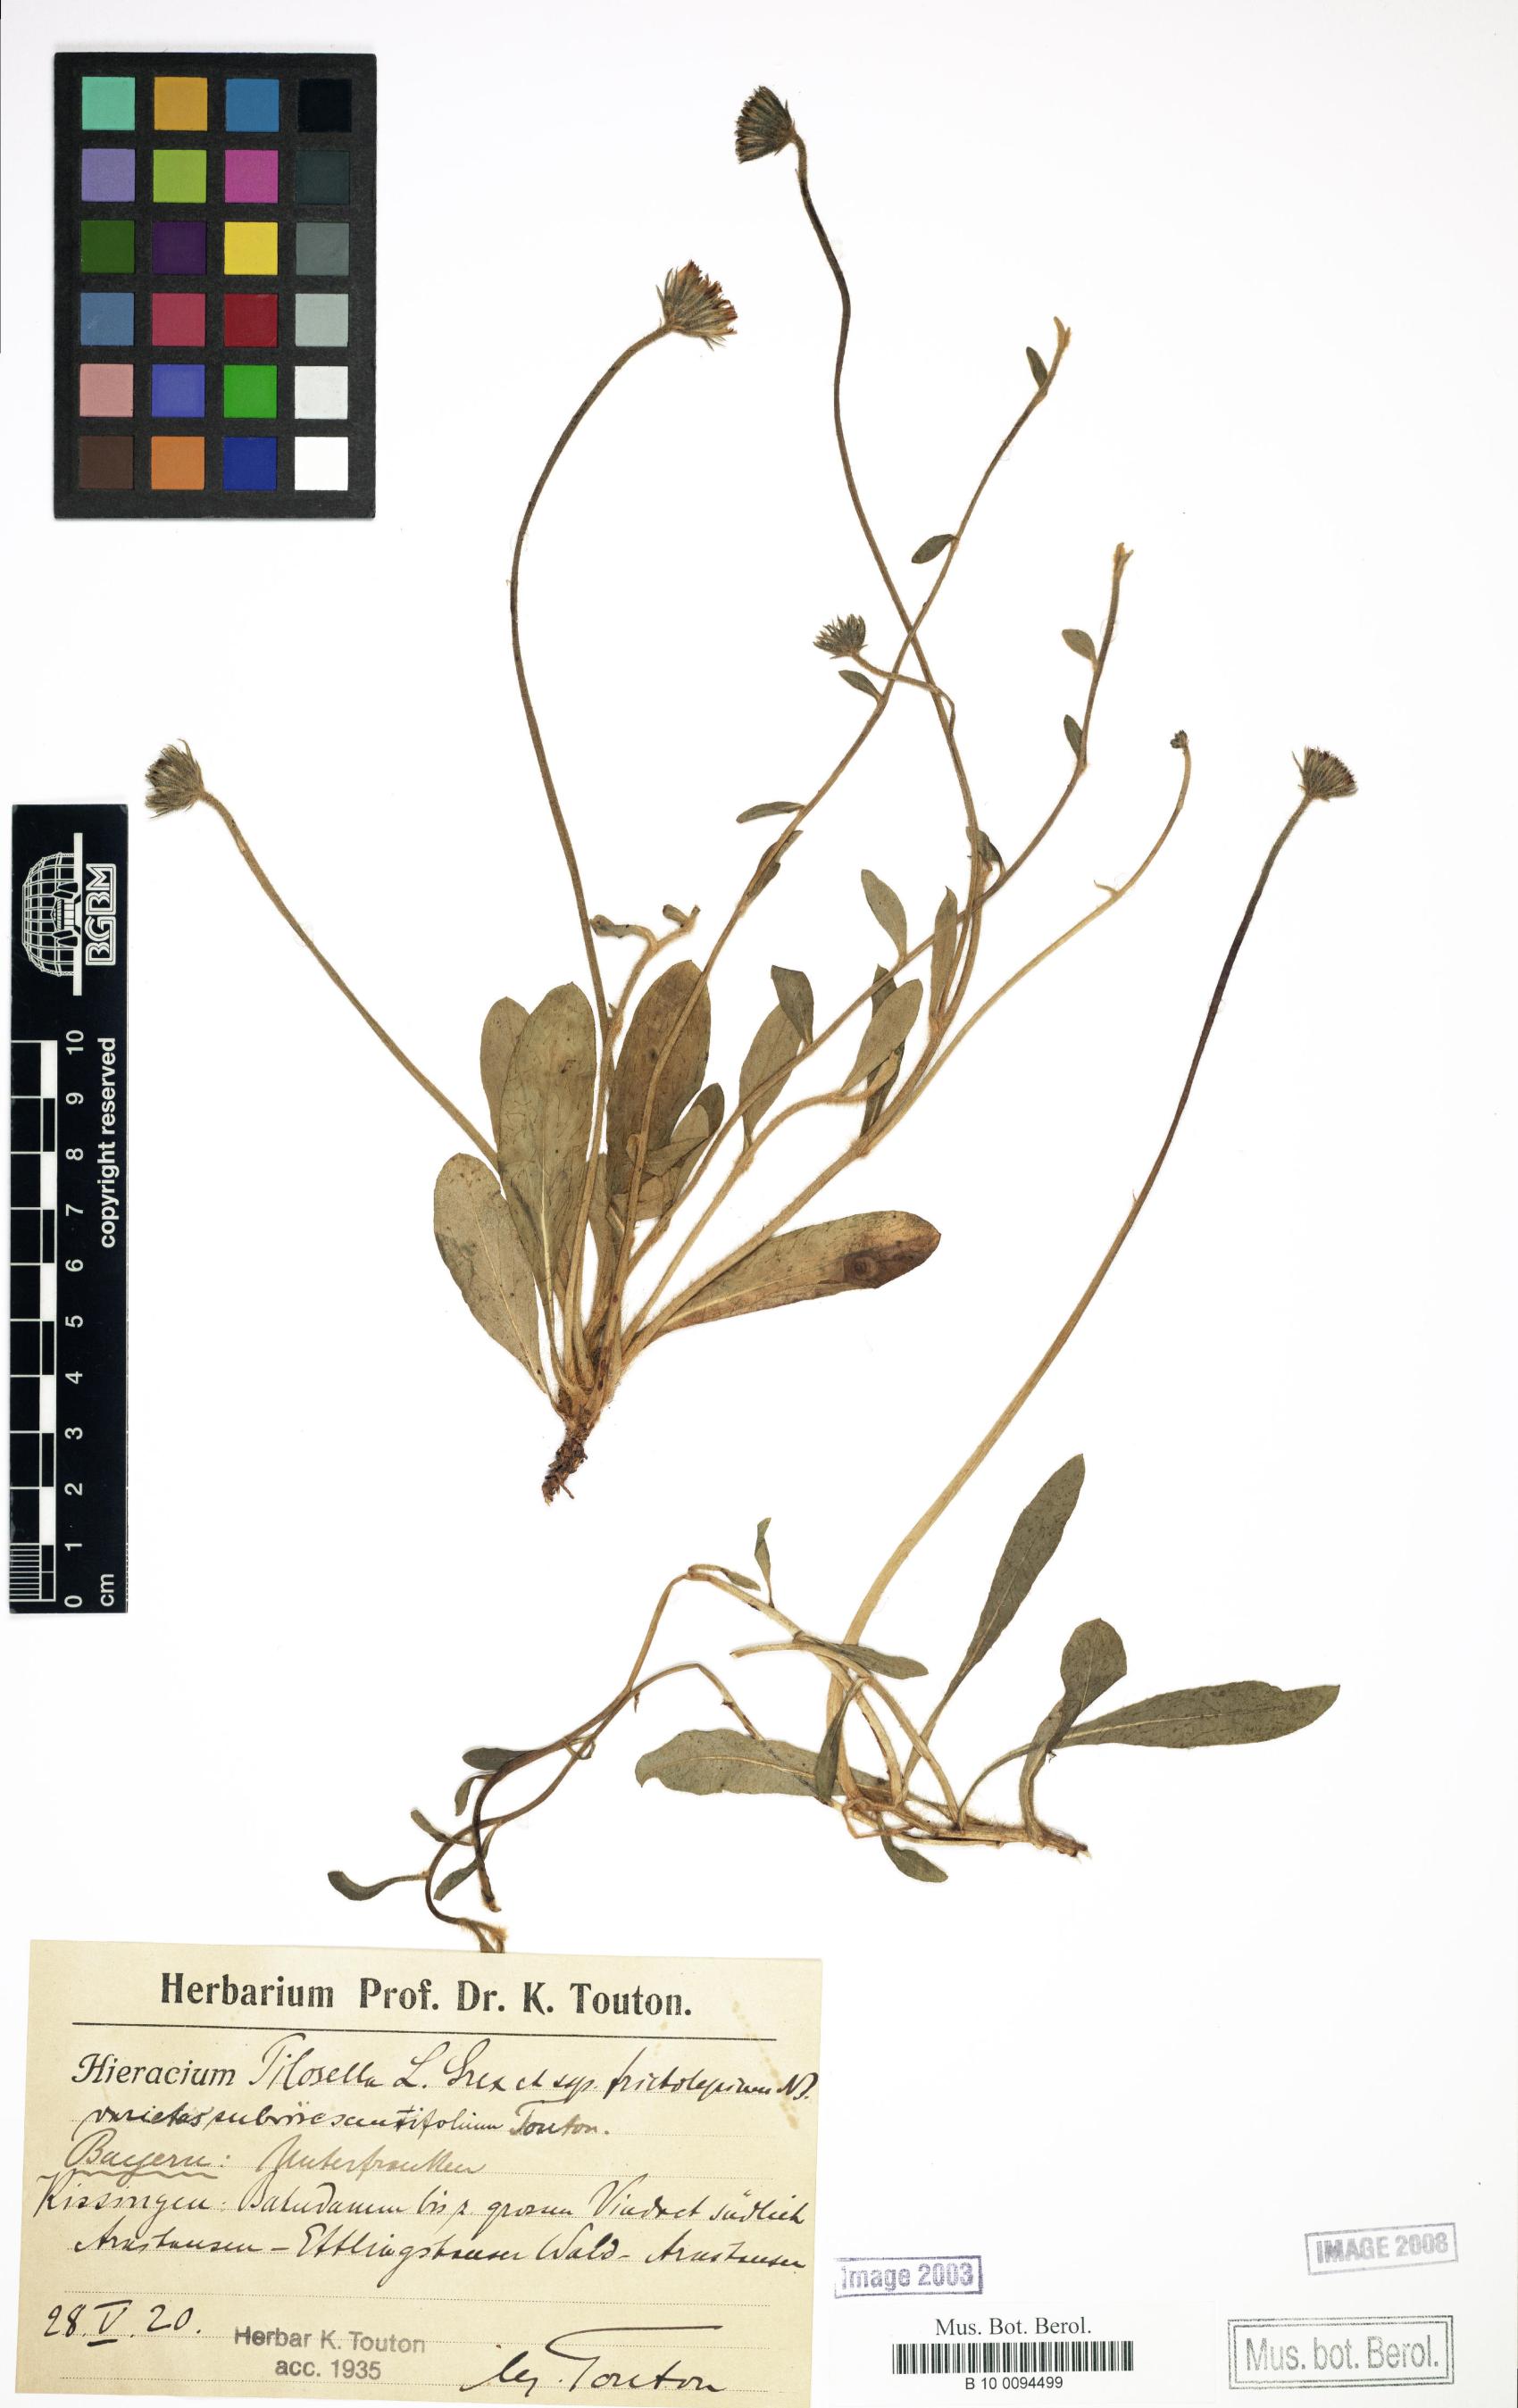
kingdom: Plantae
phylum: Tracheophyta
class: Magnoliopsida
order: Asterales
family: Asteraceae
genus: Pilosella
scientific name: Pilosella officinarum
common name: Mouse-ear hawkweed
